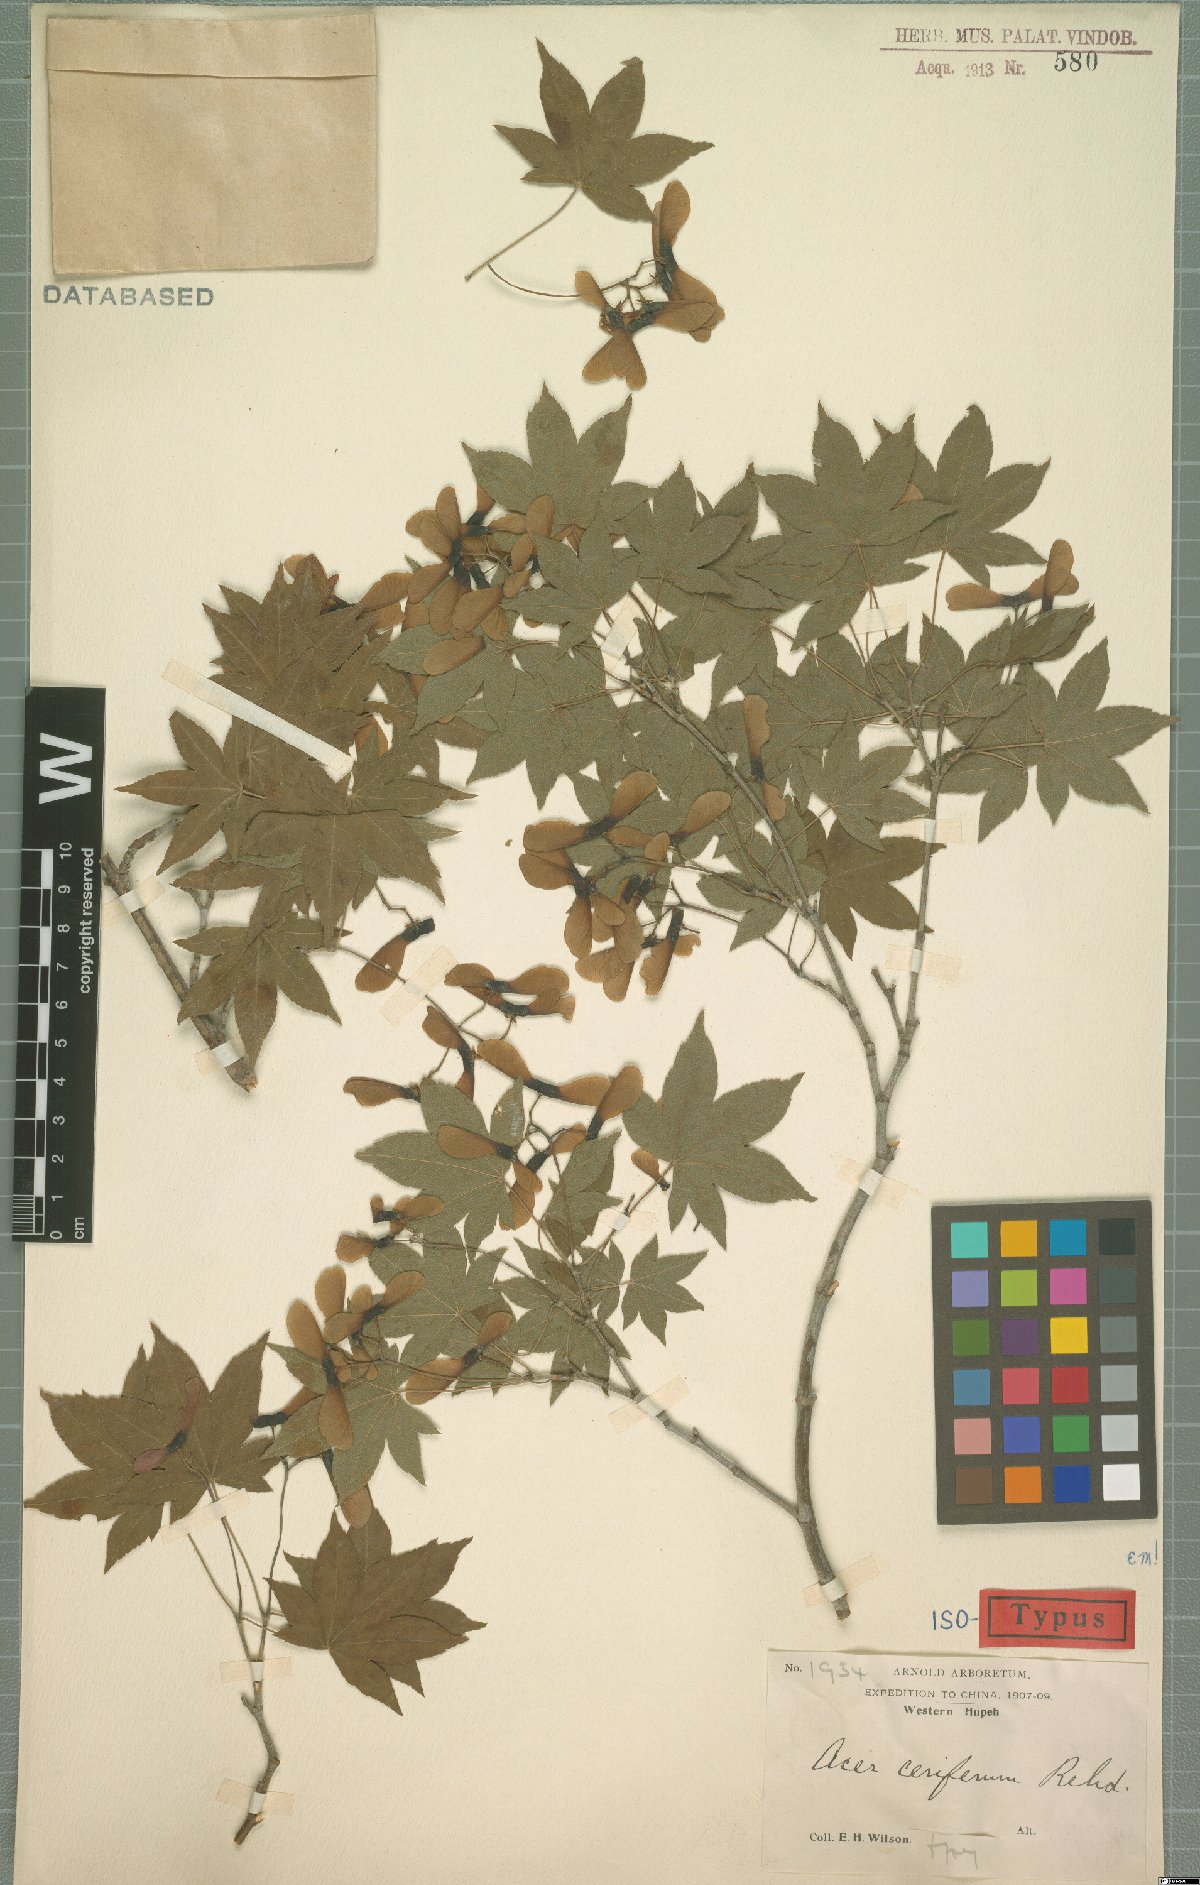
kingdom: Plantae
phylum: Tracheophyta
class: Magnoliopsida
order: Sapindales
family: Sapindaceae
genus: Acer
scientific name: Acer duplicatoserratum
